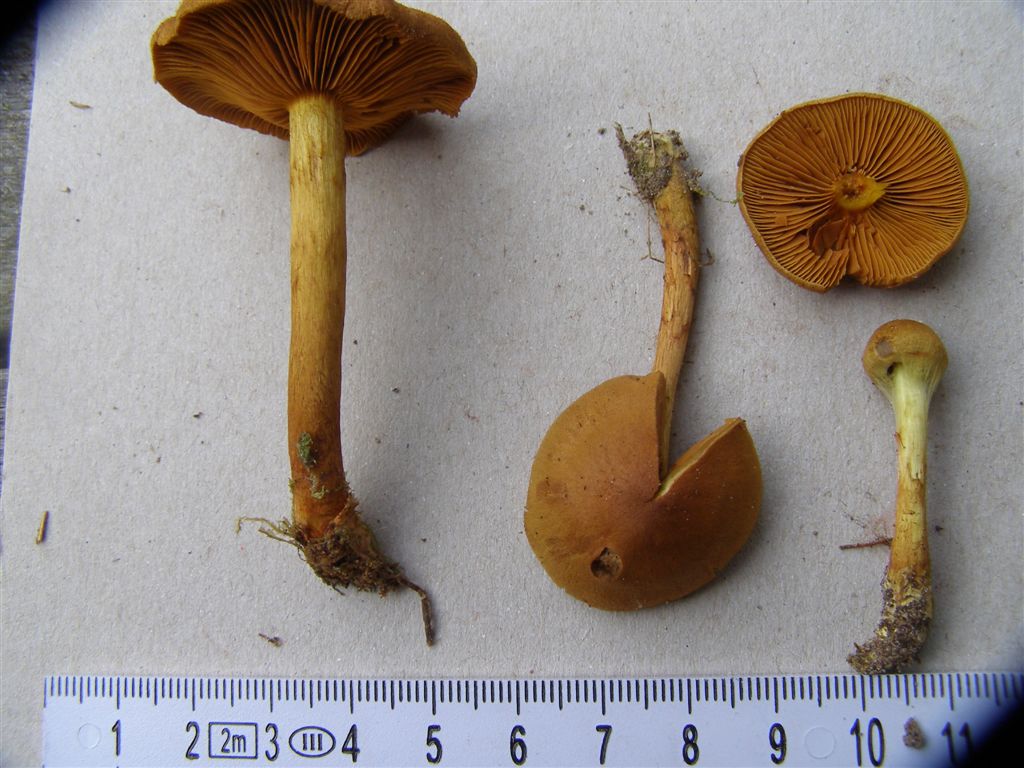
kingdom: Fungi
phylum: Basidiomycota
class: Agaricomycetes
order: Agaricales
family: Cortinariaceae
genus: Cortinarius
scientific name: Cortinarius cinnamomeus
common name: kanel-slørhat
